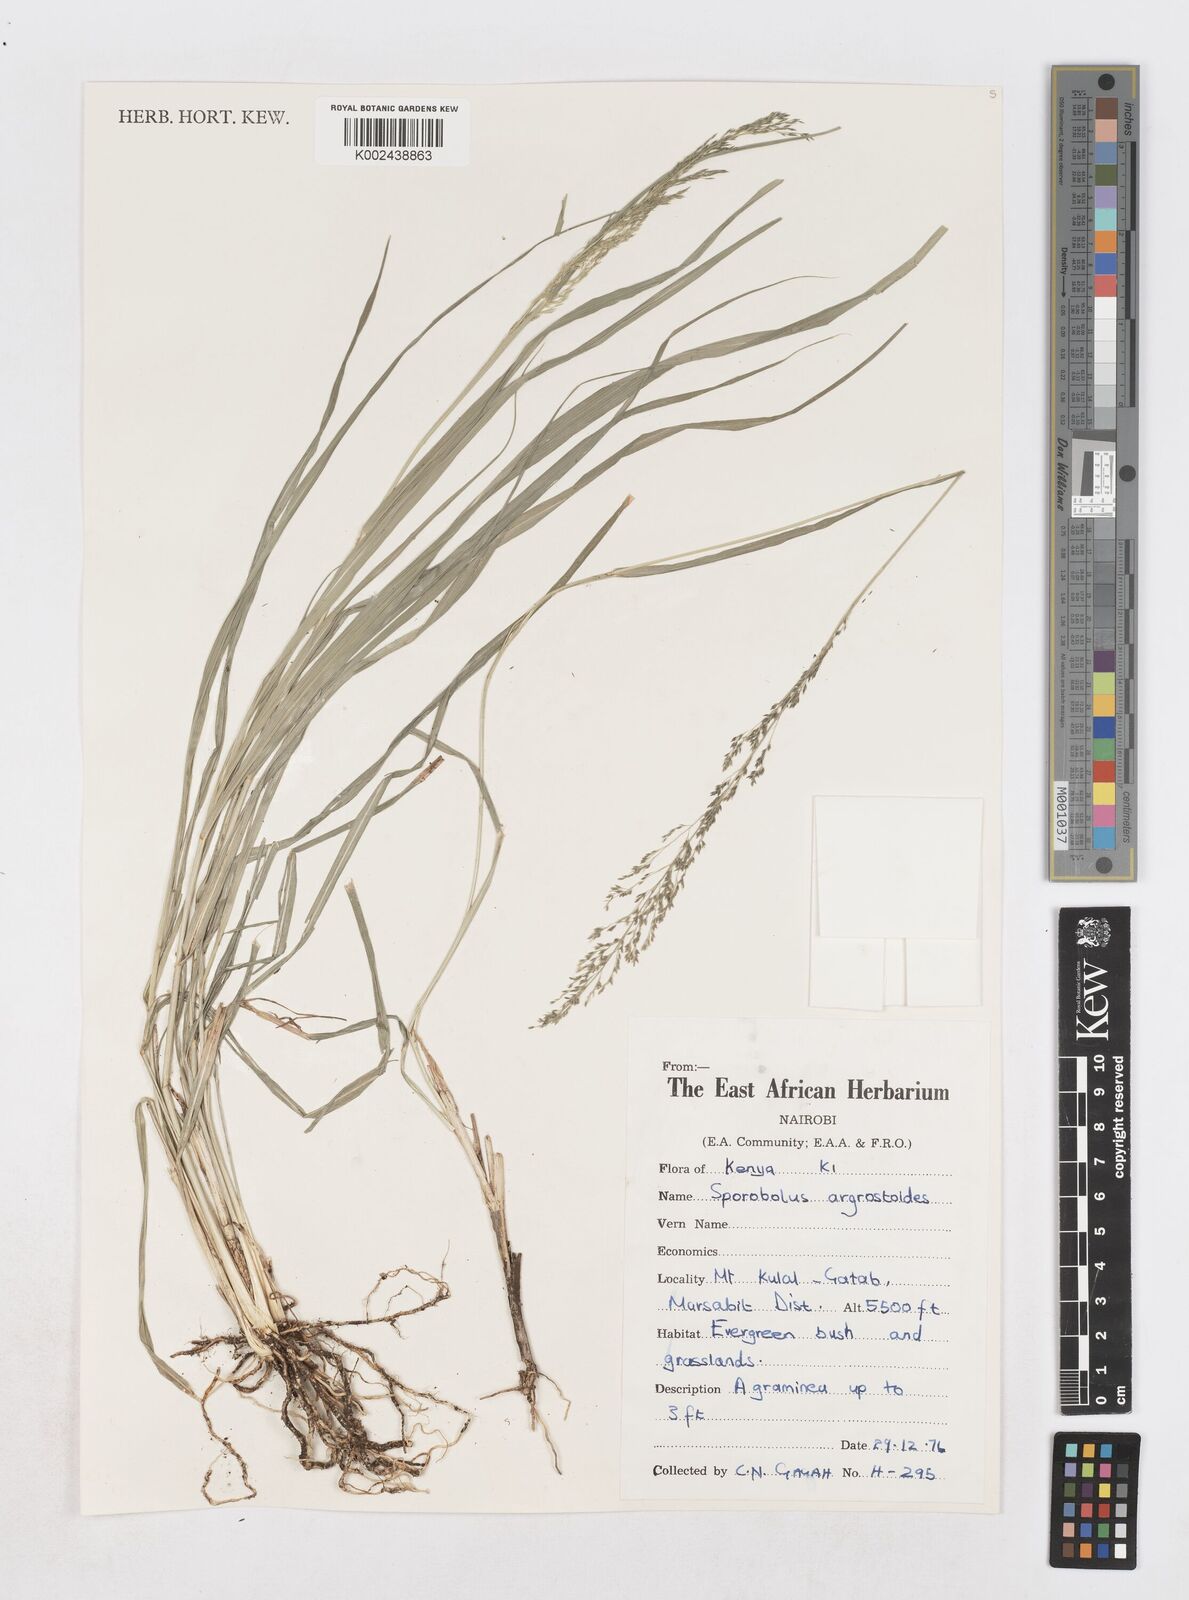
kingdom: Plantae
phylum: Tracheophyta
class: Liliopsida
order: Poales
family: Poaceae
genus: Sporobolus
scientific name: Sporobolus agrostoides
